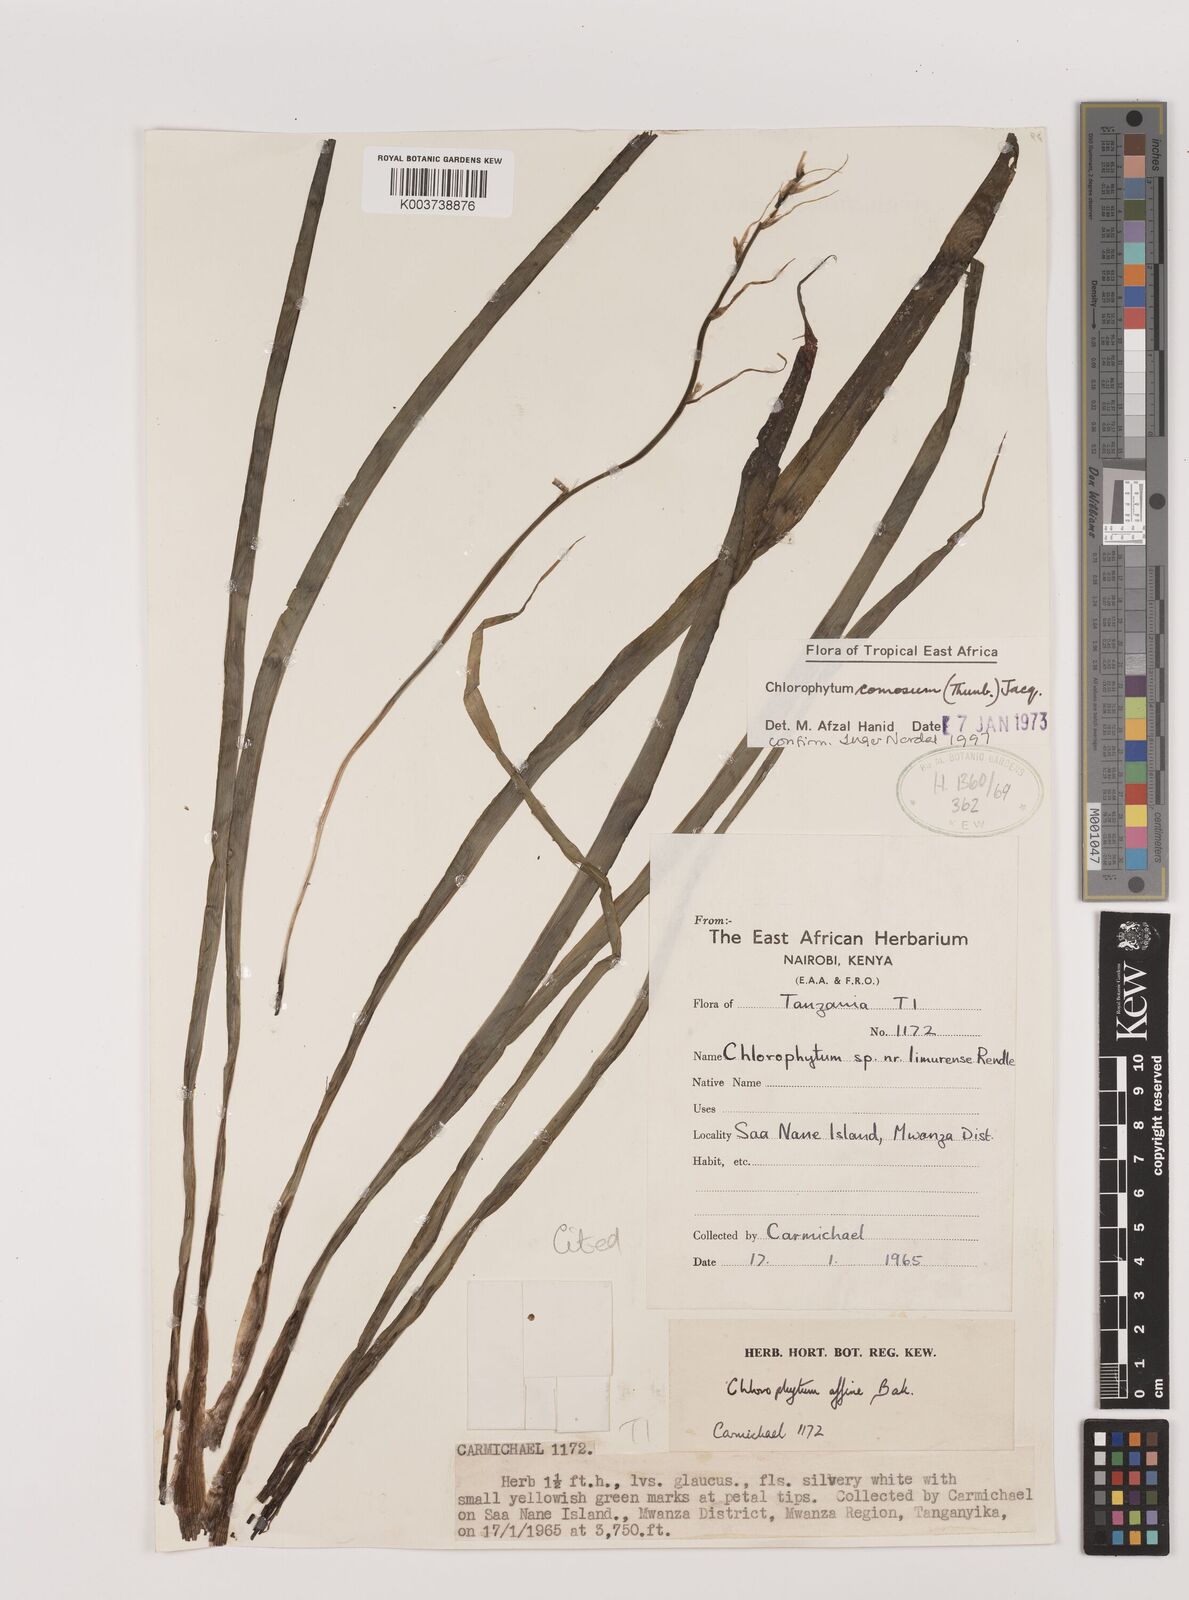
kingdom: Plantae
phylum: Tracheophyta
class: Liliopsida
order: Asparagales
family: Asparagaceae
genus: Chlorophytum
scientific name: Chlorophytum comosum
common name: Spider plant
